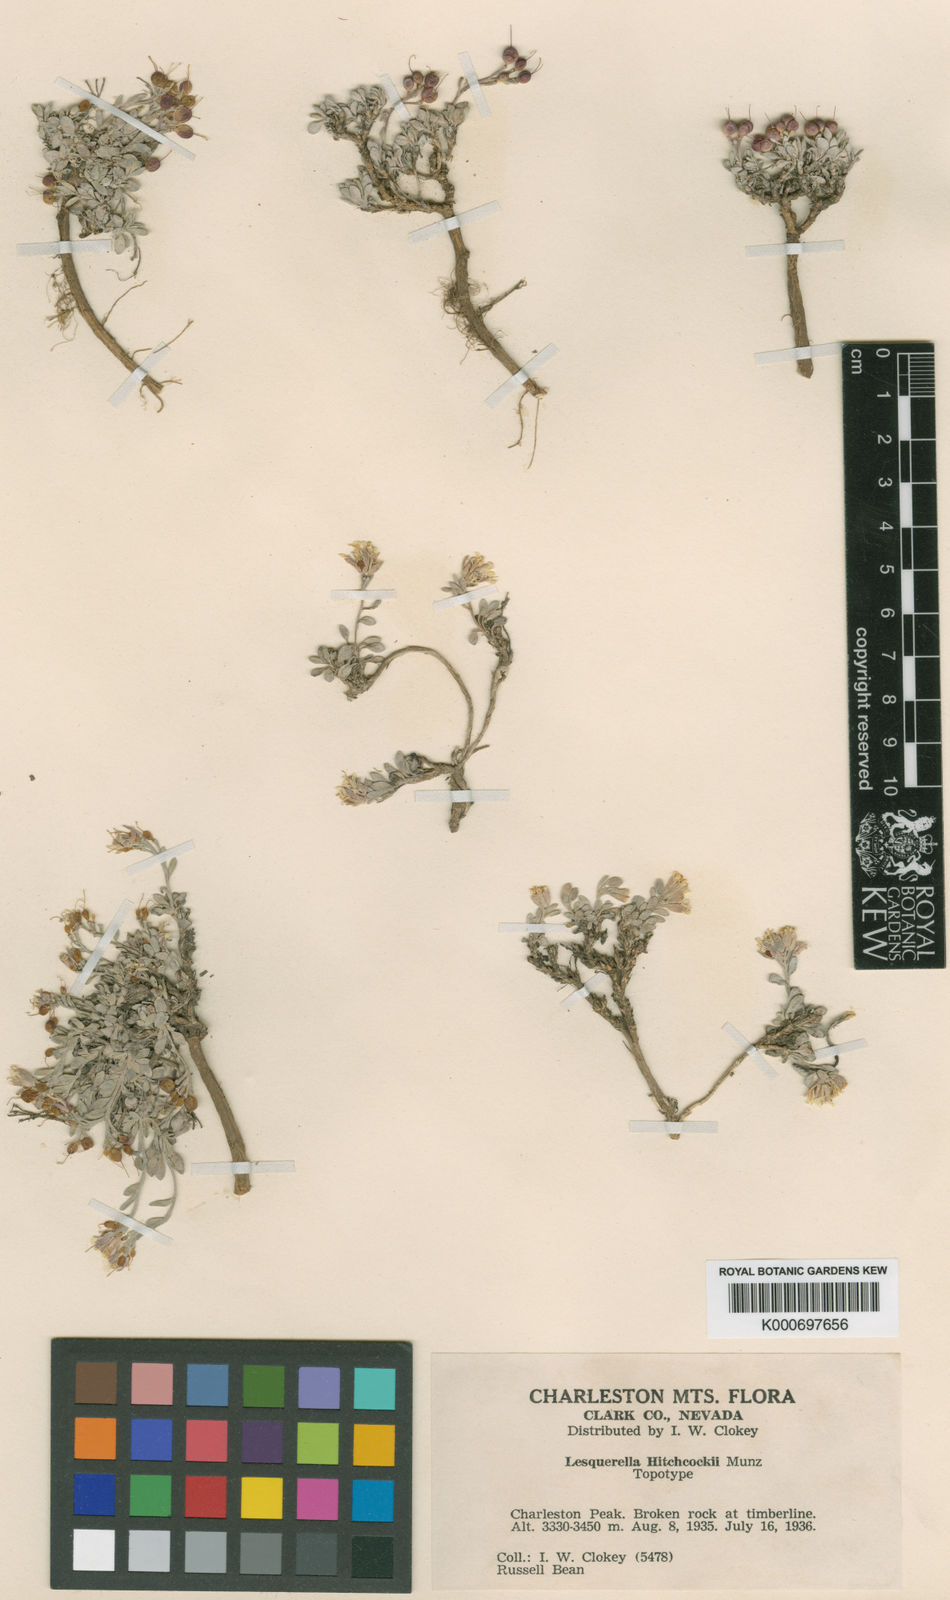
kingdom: Plantae
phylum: Tracheophyta
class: Magnoliopsida
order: Brassicales
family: Brassicaceae
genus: Physaria
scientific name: Physaria hitchcockii
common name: Hitchcock's bladderpod
